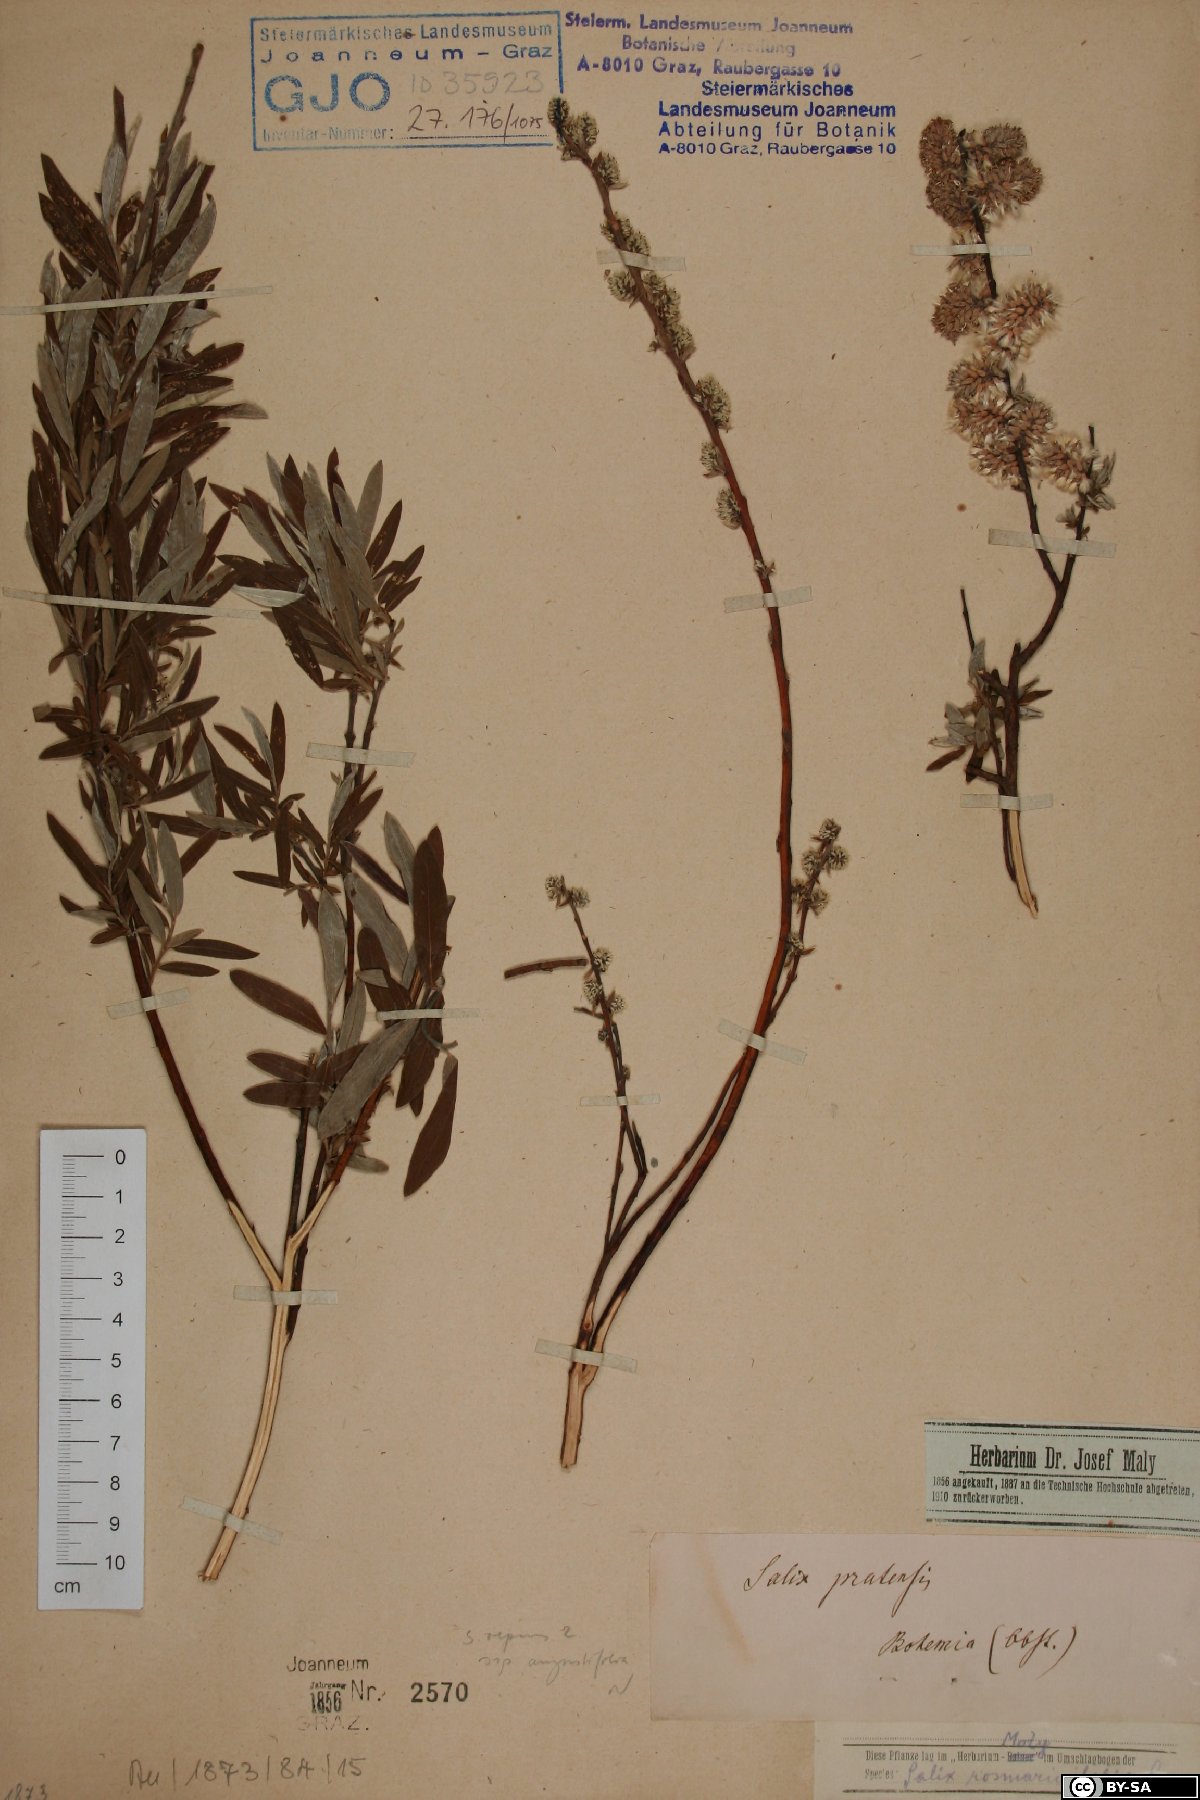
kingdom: Plantae
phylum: Tracheophyta
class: Magnoliopsida
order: Malpighiales
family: Salicaceae
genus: Salix
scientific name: Salix rosmarinifolia
